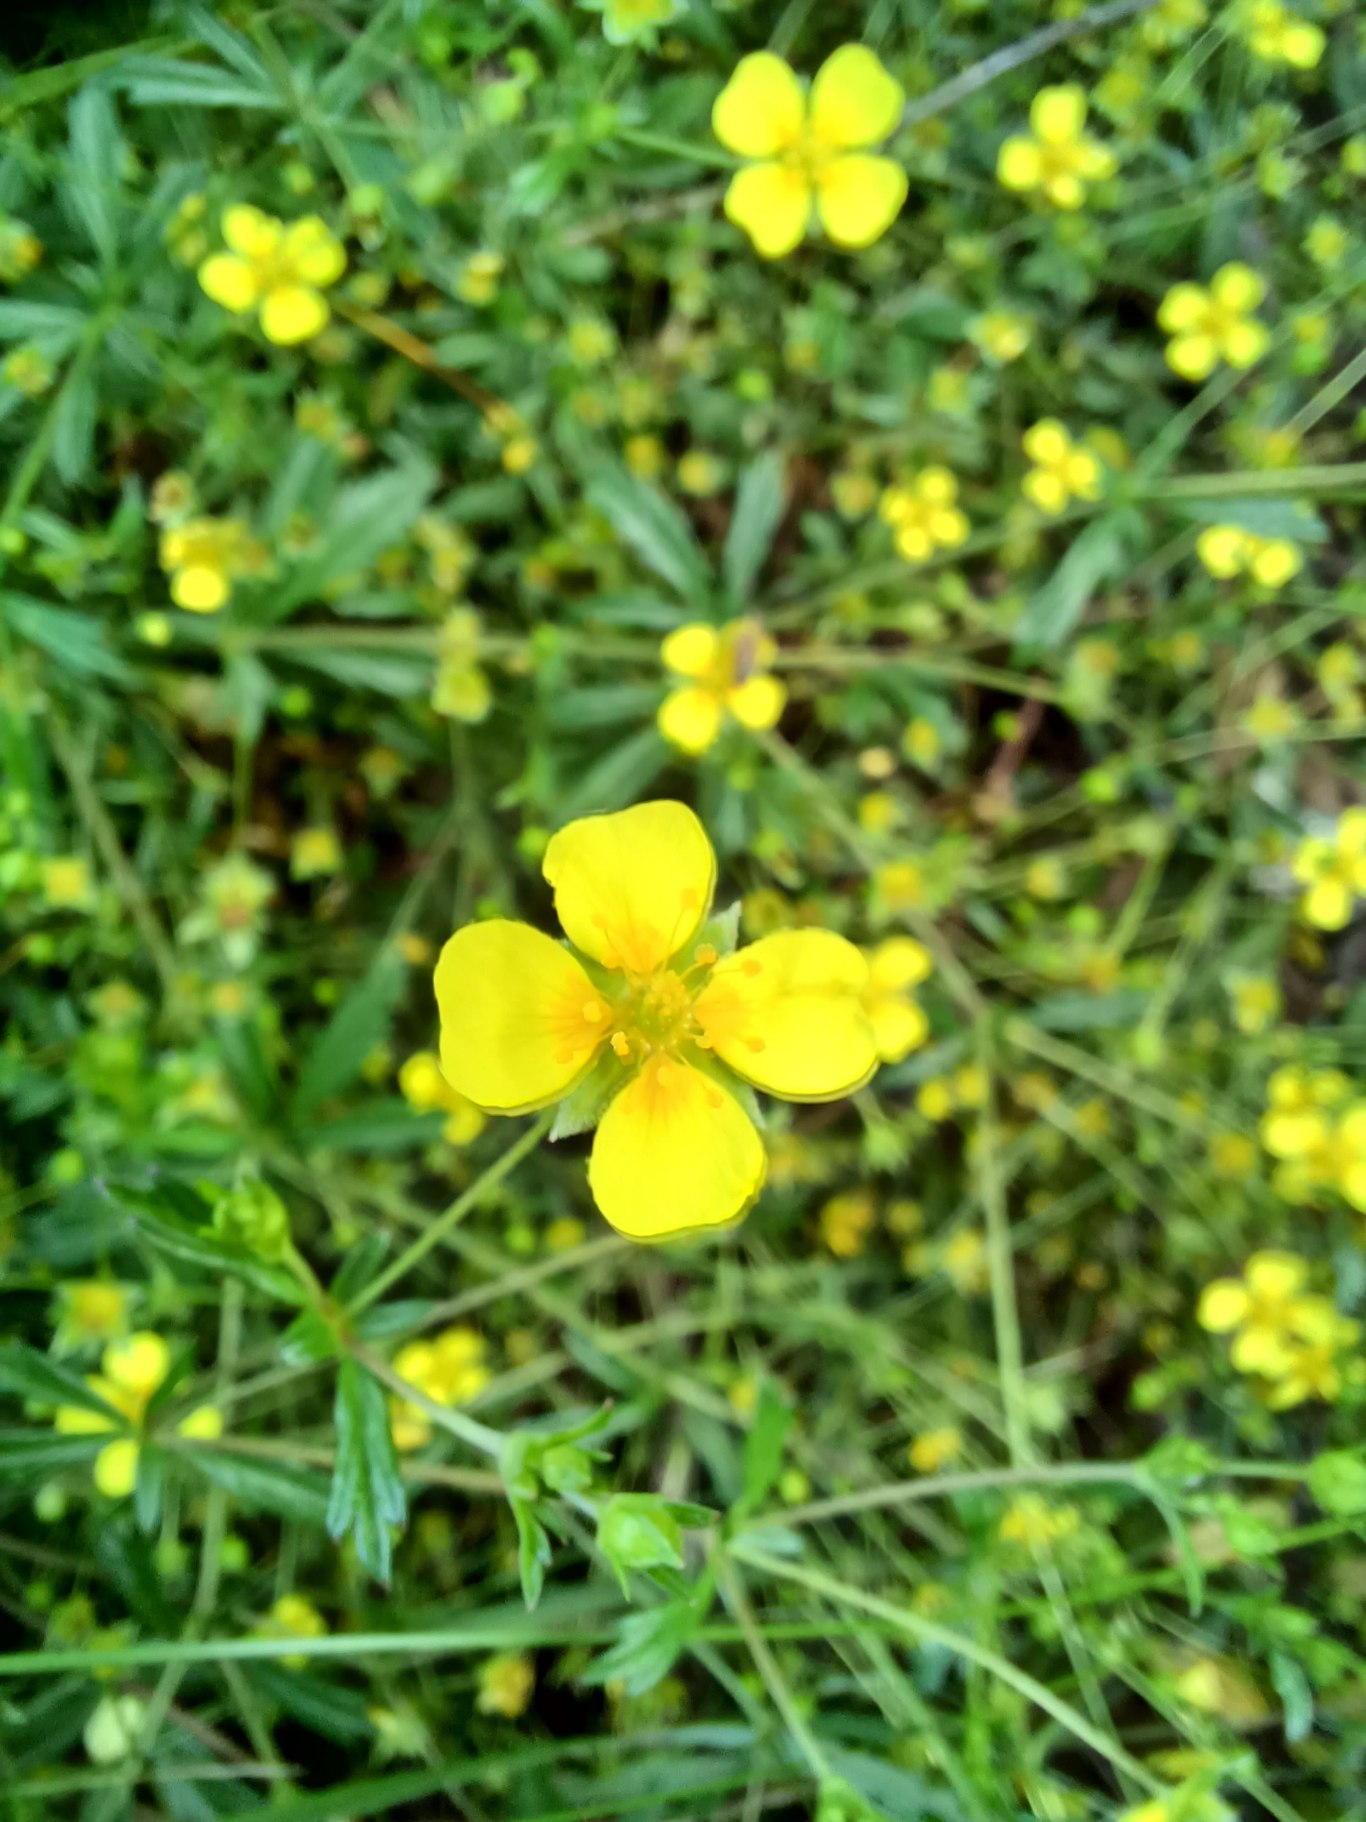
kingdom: Plantae
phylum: Tracheophyta
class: Magnoliopsida
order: Rosales
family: Rosaceae
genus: Potentilla
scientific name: Potentilla erecta
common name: Tormentil
